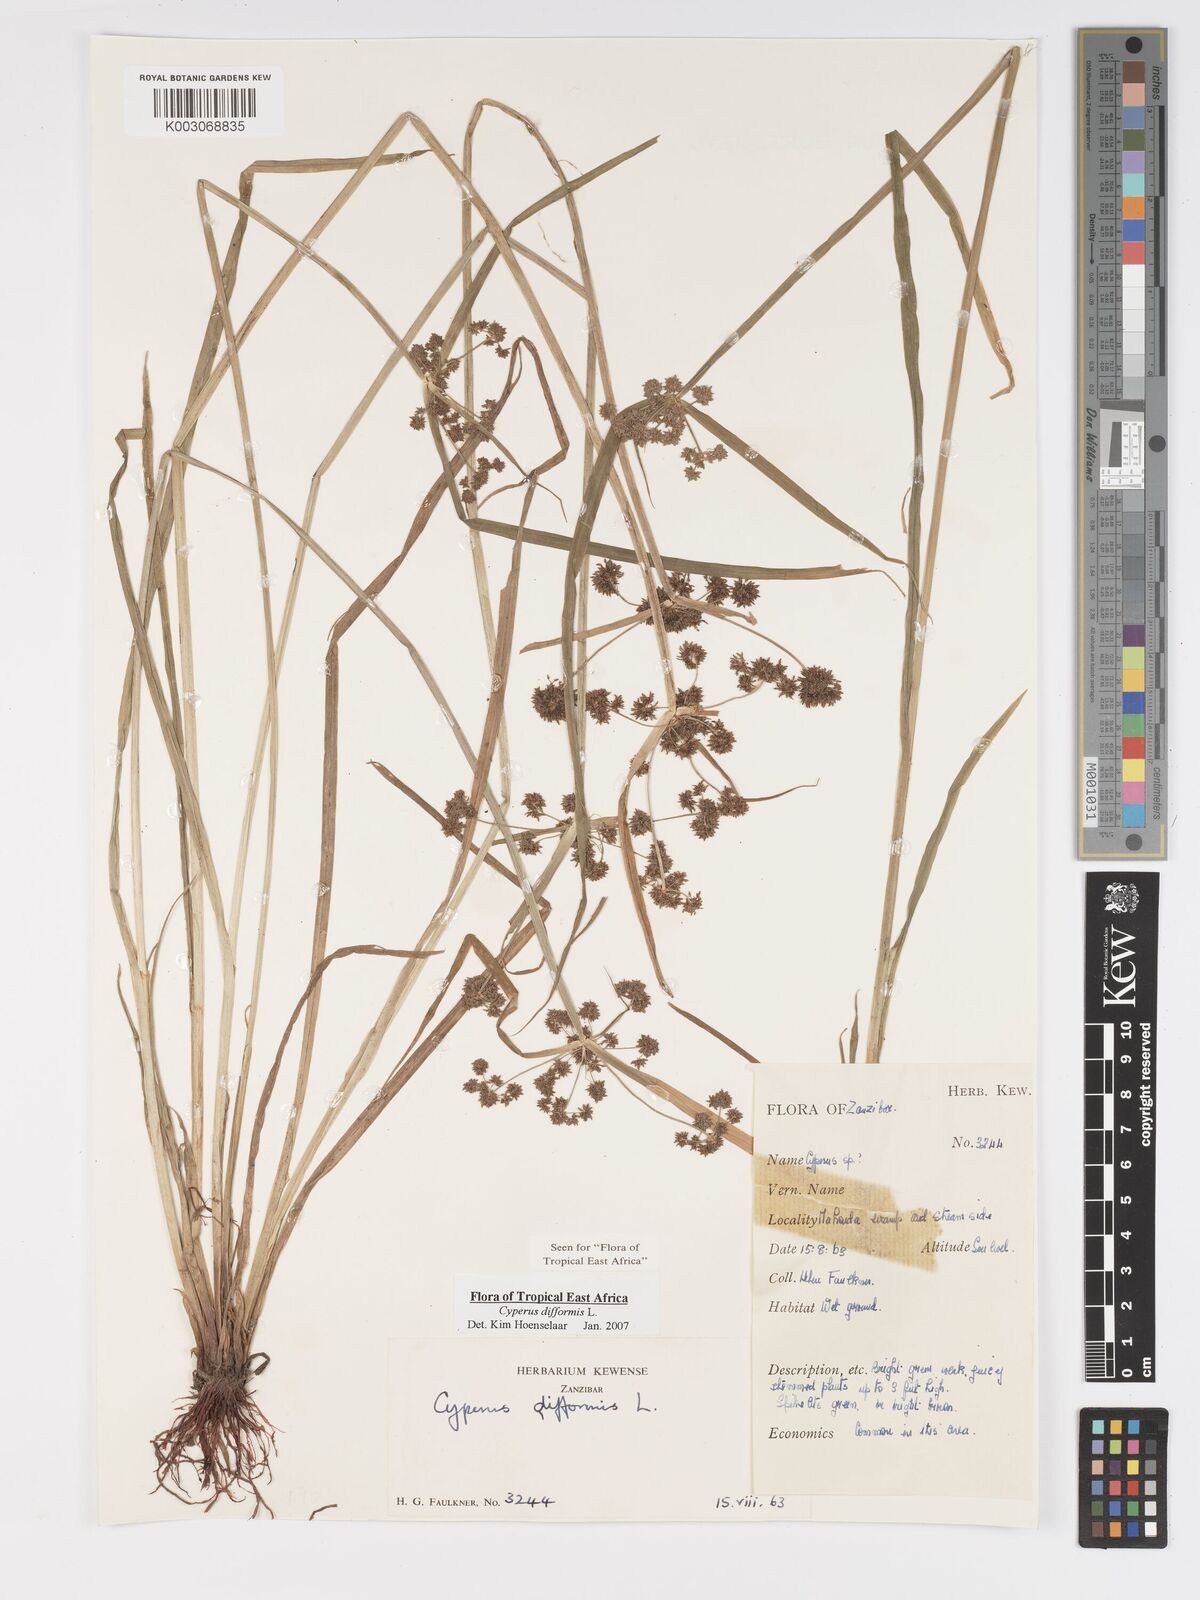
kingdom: Plantae
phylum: Tracheophyta
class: Liliopsida
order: Poales
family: Cyperaceae
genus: Cyperus
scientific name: Cyperus difformis
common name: Variable flatsedge
